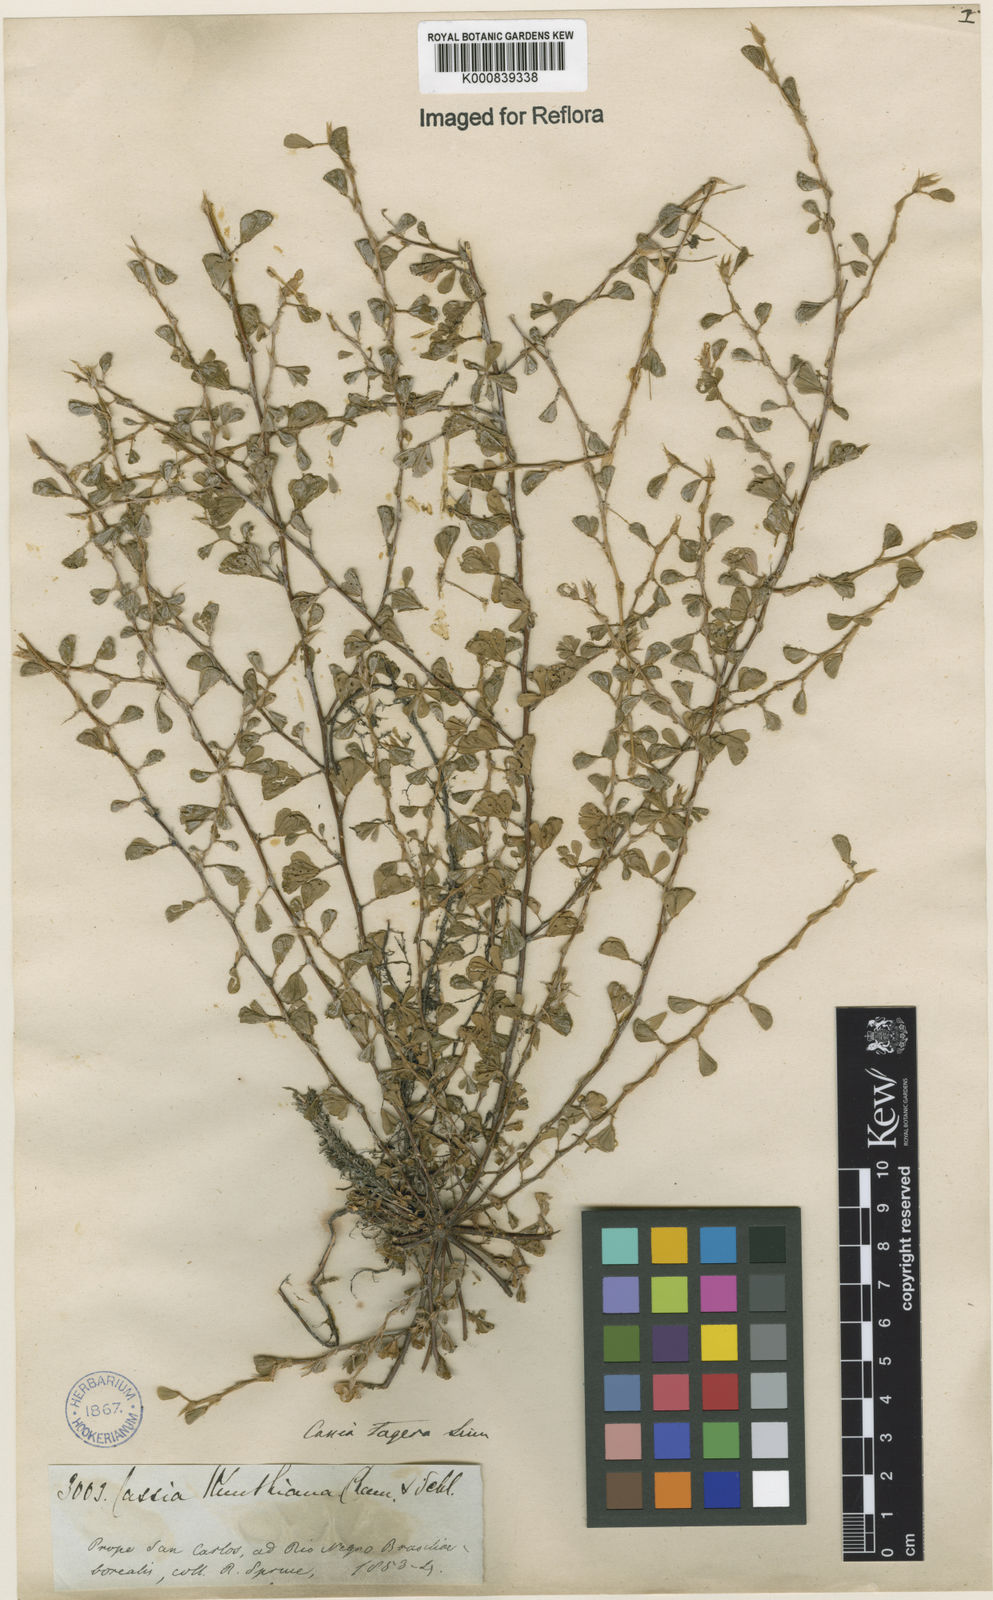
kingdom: Plantae
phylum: Tracheophyta
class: Magnoliopsida
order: Fabales
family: Fabaceae
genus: Chamaecrista
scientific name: Chamaecrista kunthiana
